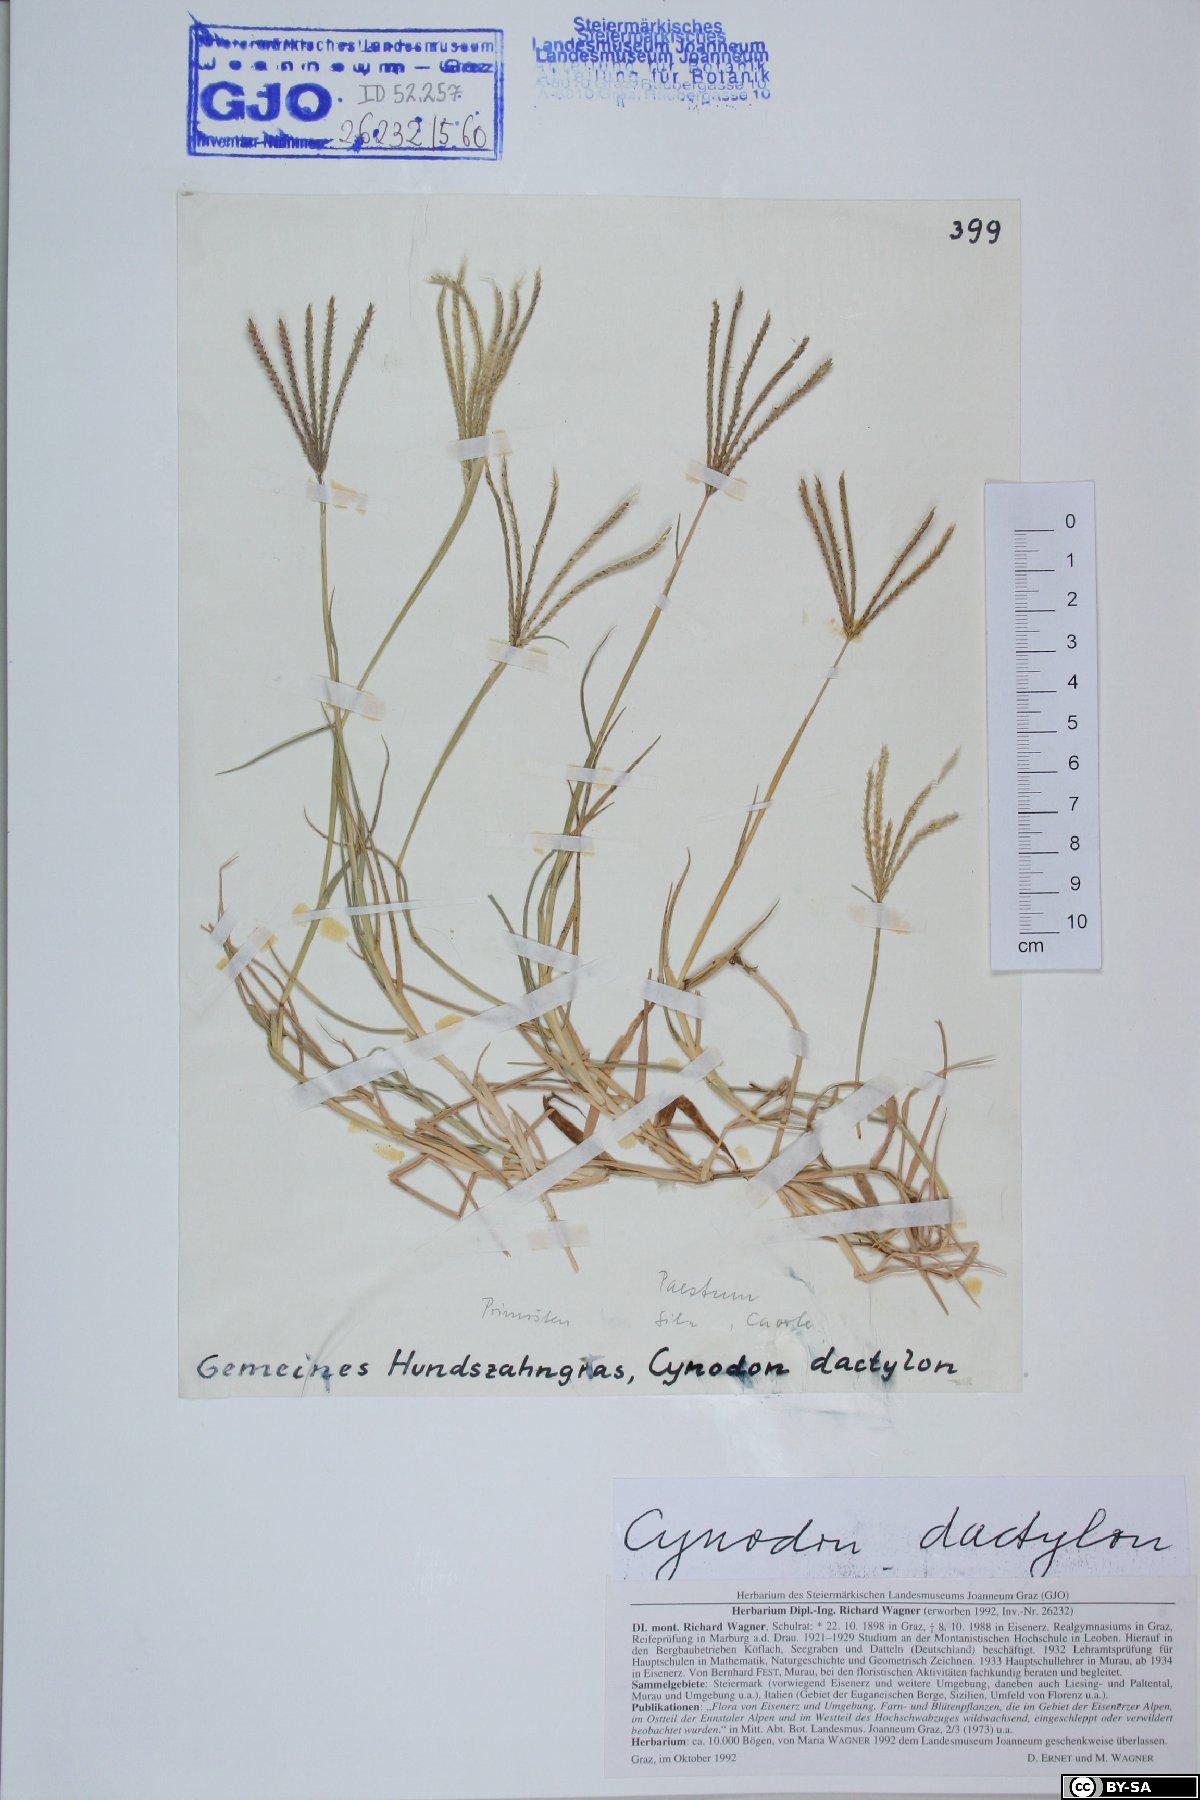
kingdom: Plantae
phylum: Tracheophyta
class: Liliopsida
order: Poales
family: Poaceae
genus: Cynodon
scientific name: Cynodon dactylon
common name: Bermuda grass
